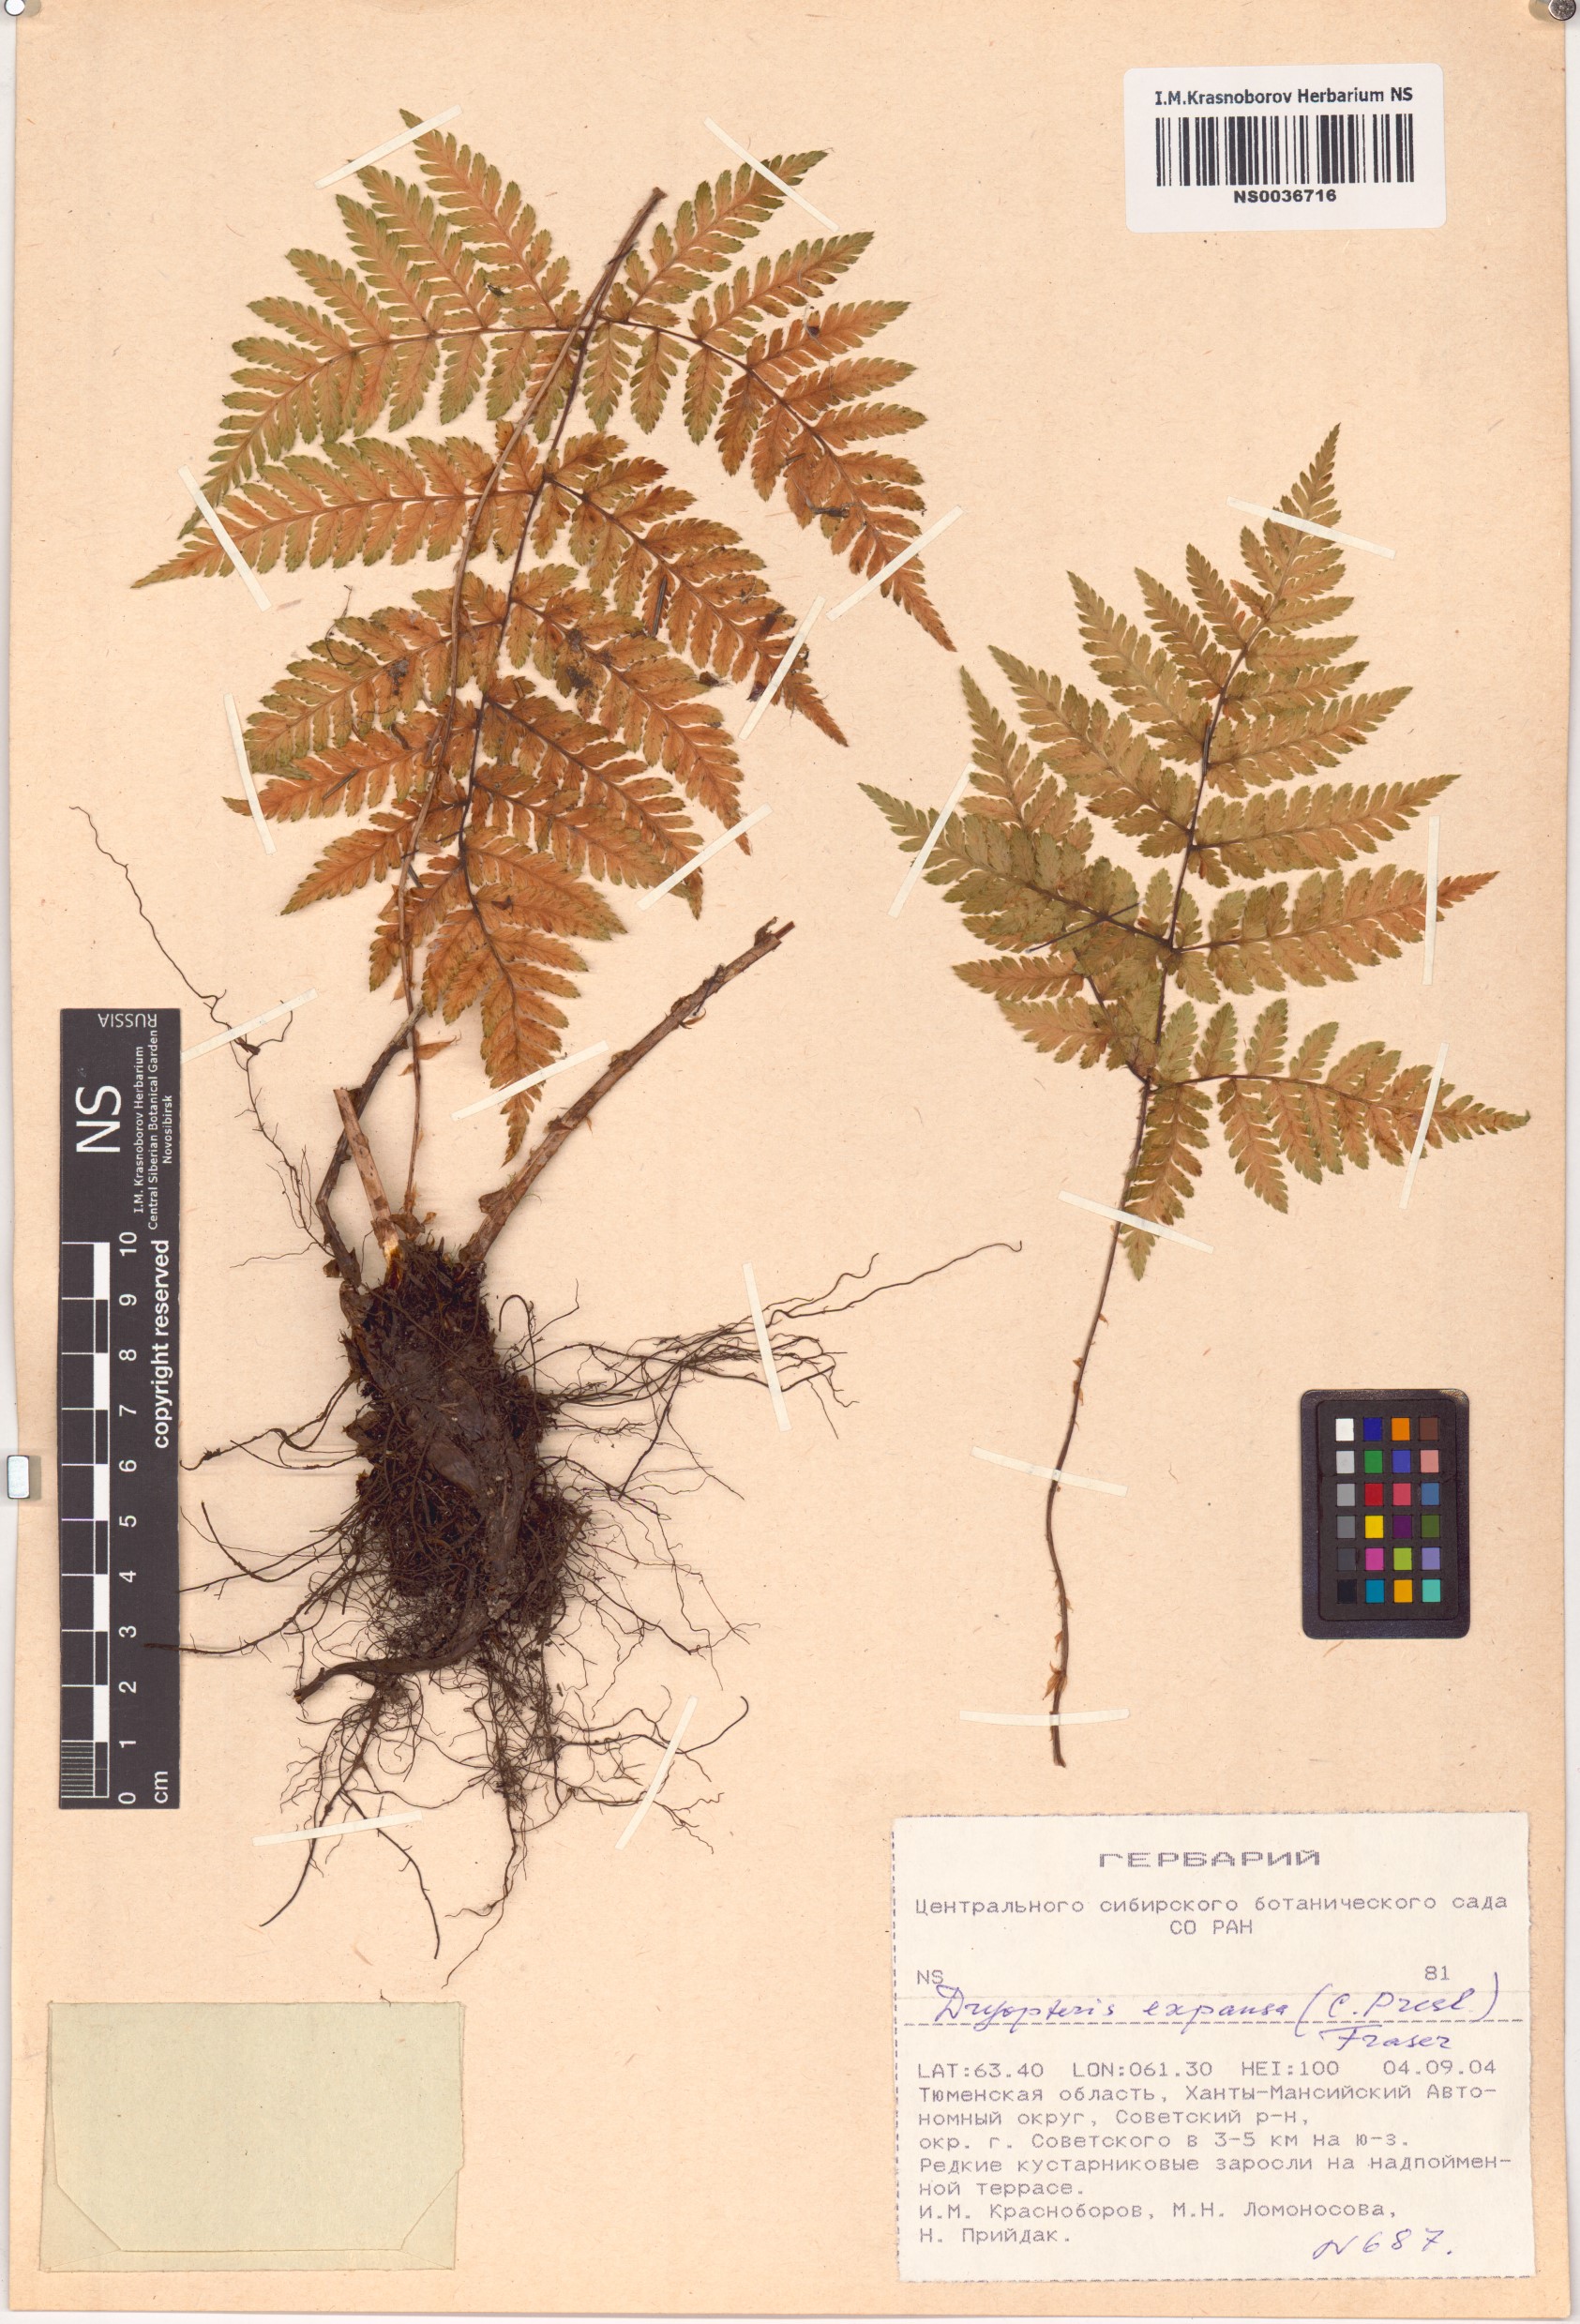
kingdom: Plantae
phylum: Tracheophyta
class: Polypodiopsida
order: Polypodiales
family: Dryopteridaceae
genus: Dryopteris
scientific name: Dryopteris expansa
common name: Northern buckler fern
